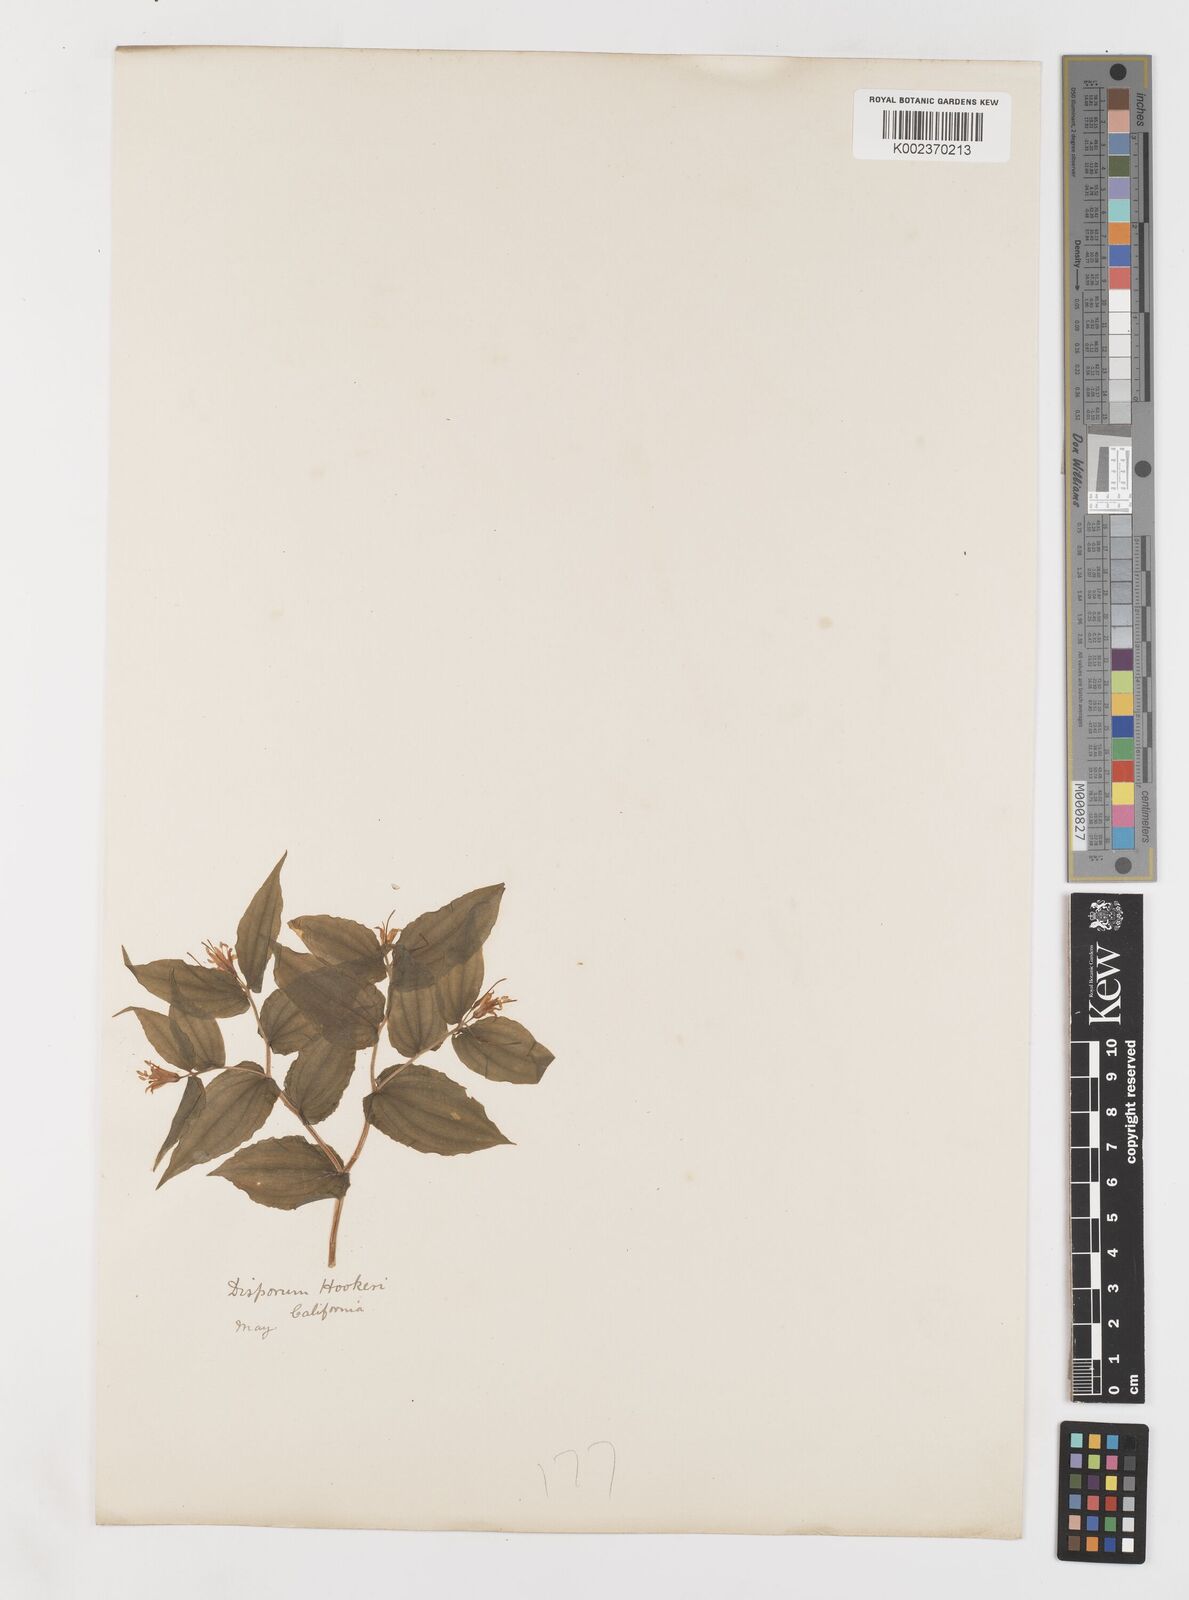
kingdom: Plantae
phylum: Tracheophyta
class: Liliopsida
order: Liliales
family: Liliaceae
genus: Prosartes
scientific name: Prosartes hookeri
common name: Fairy-bells
